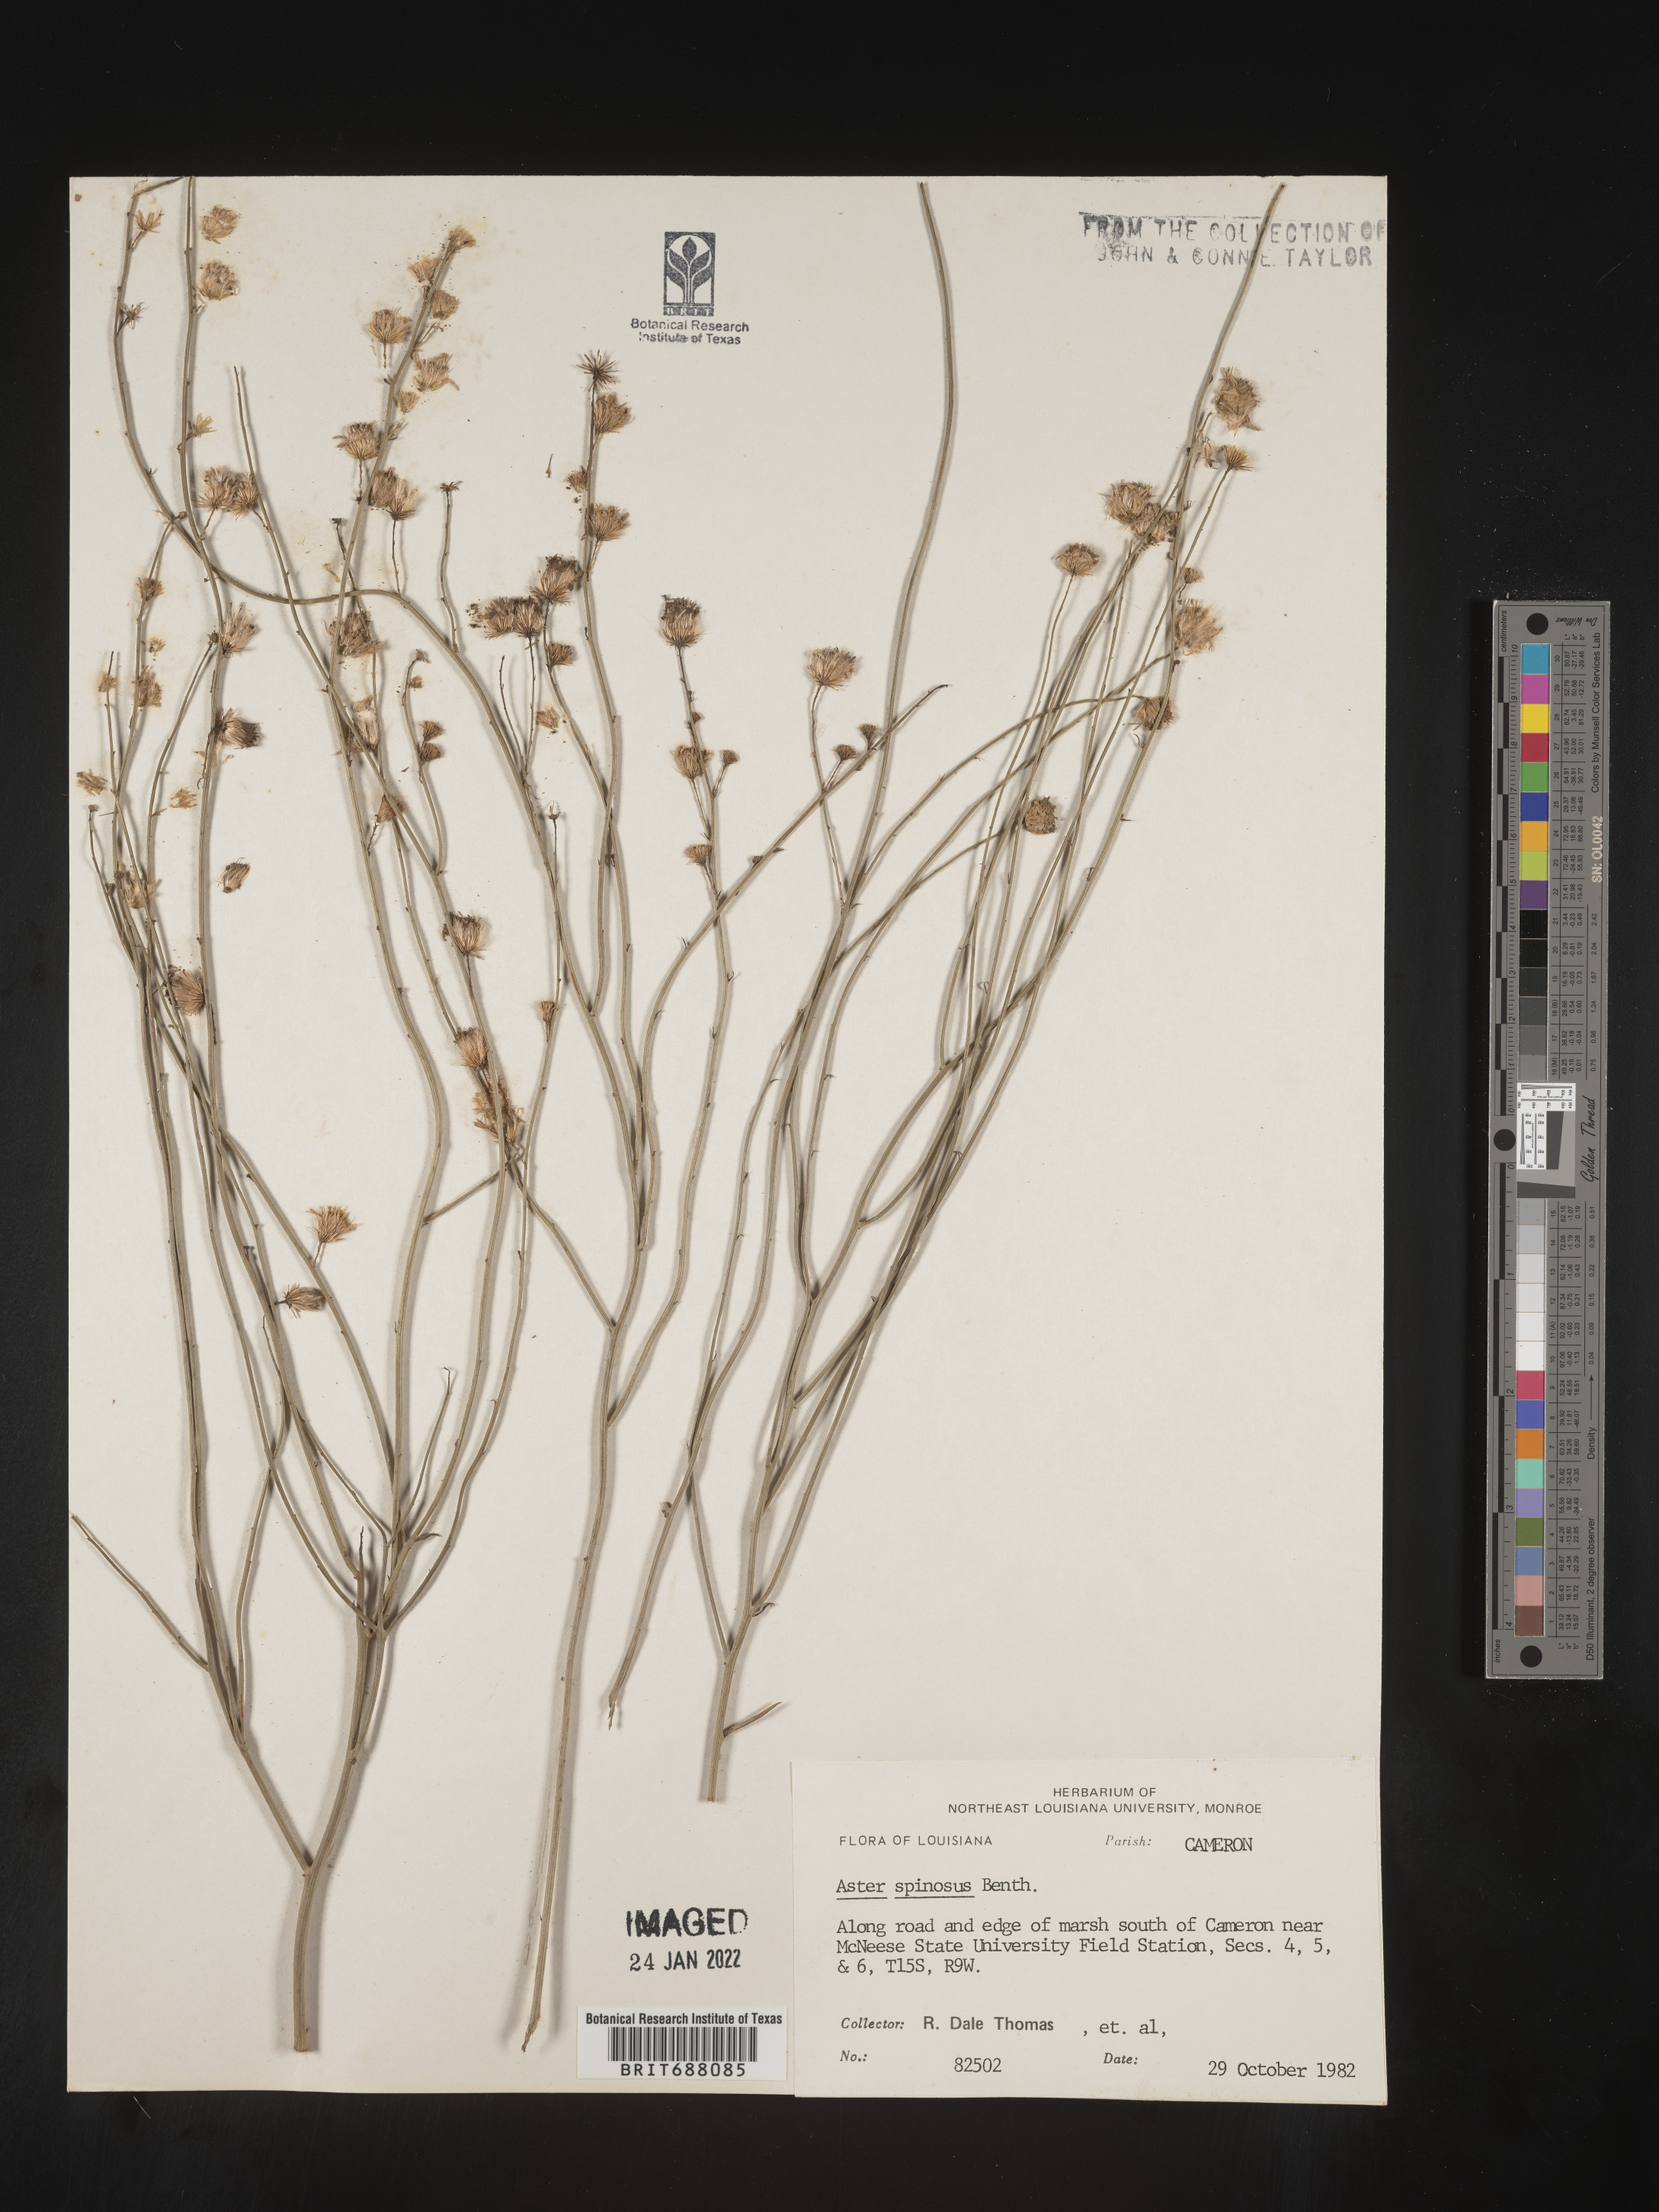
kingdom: Plantae
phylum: Tracheophyta
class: Magnoliopsida
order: Asterales
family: Asteraceae
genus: Chloracantha
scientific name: Chloracantha spinosa
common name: Mexican devilweed
